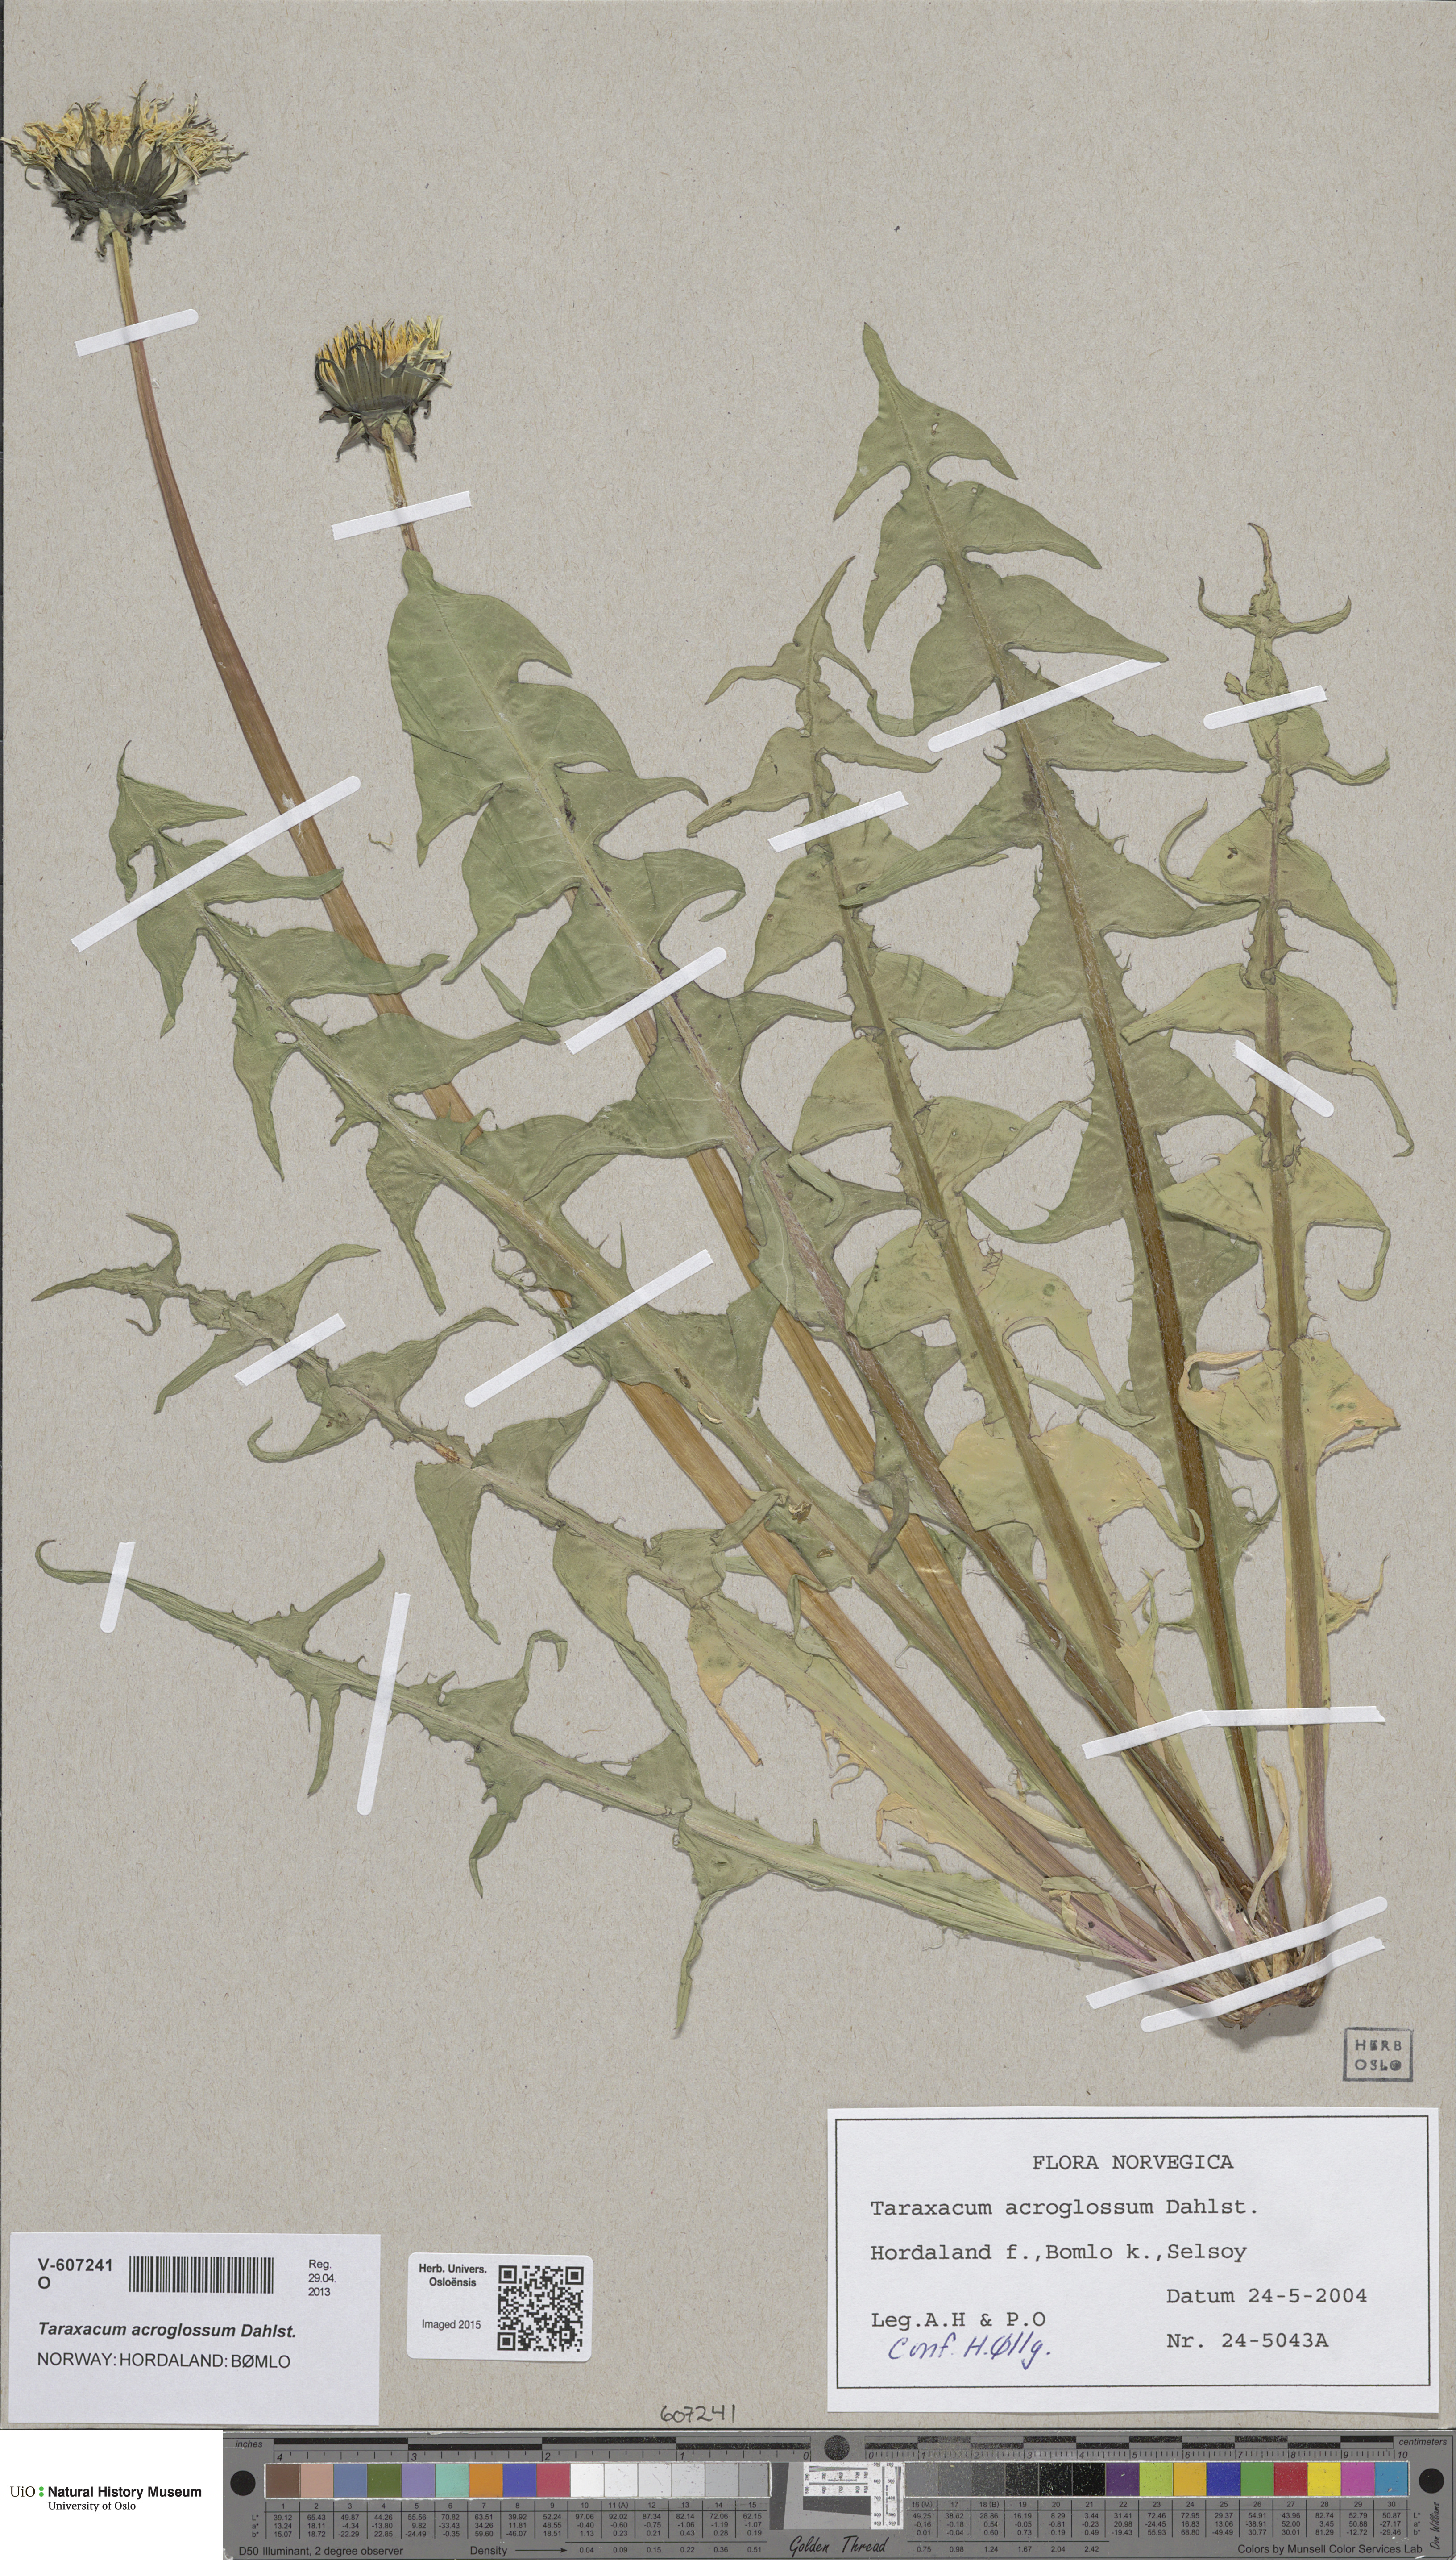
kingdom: Plantae
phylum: Tracheophyta
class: Magnoliopsida
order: Asterales
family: Asteraceae
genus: Taraxacum
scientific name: Taraxacum acroglossum
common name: Broad-bracted dandelion
